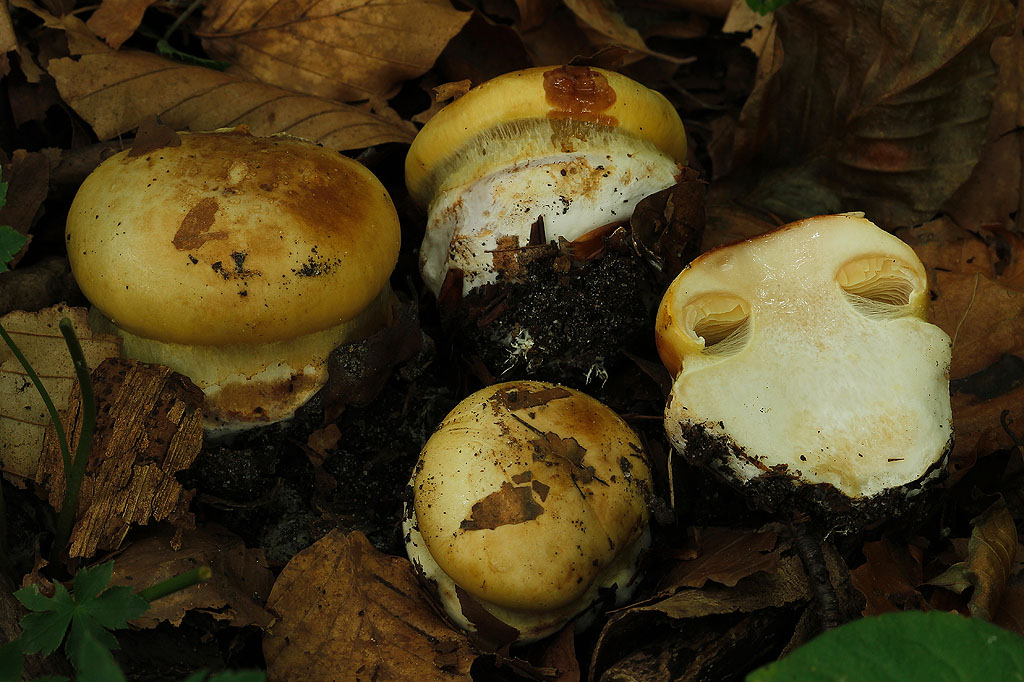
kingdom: Fungi
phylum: Basidiomycota
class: Agaricomycetes
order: Agaricales
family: Cortinariaceae
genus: Calonarius
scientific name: Calonarius
